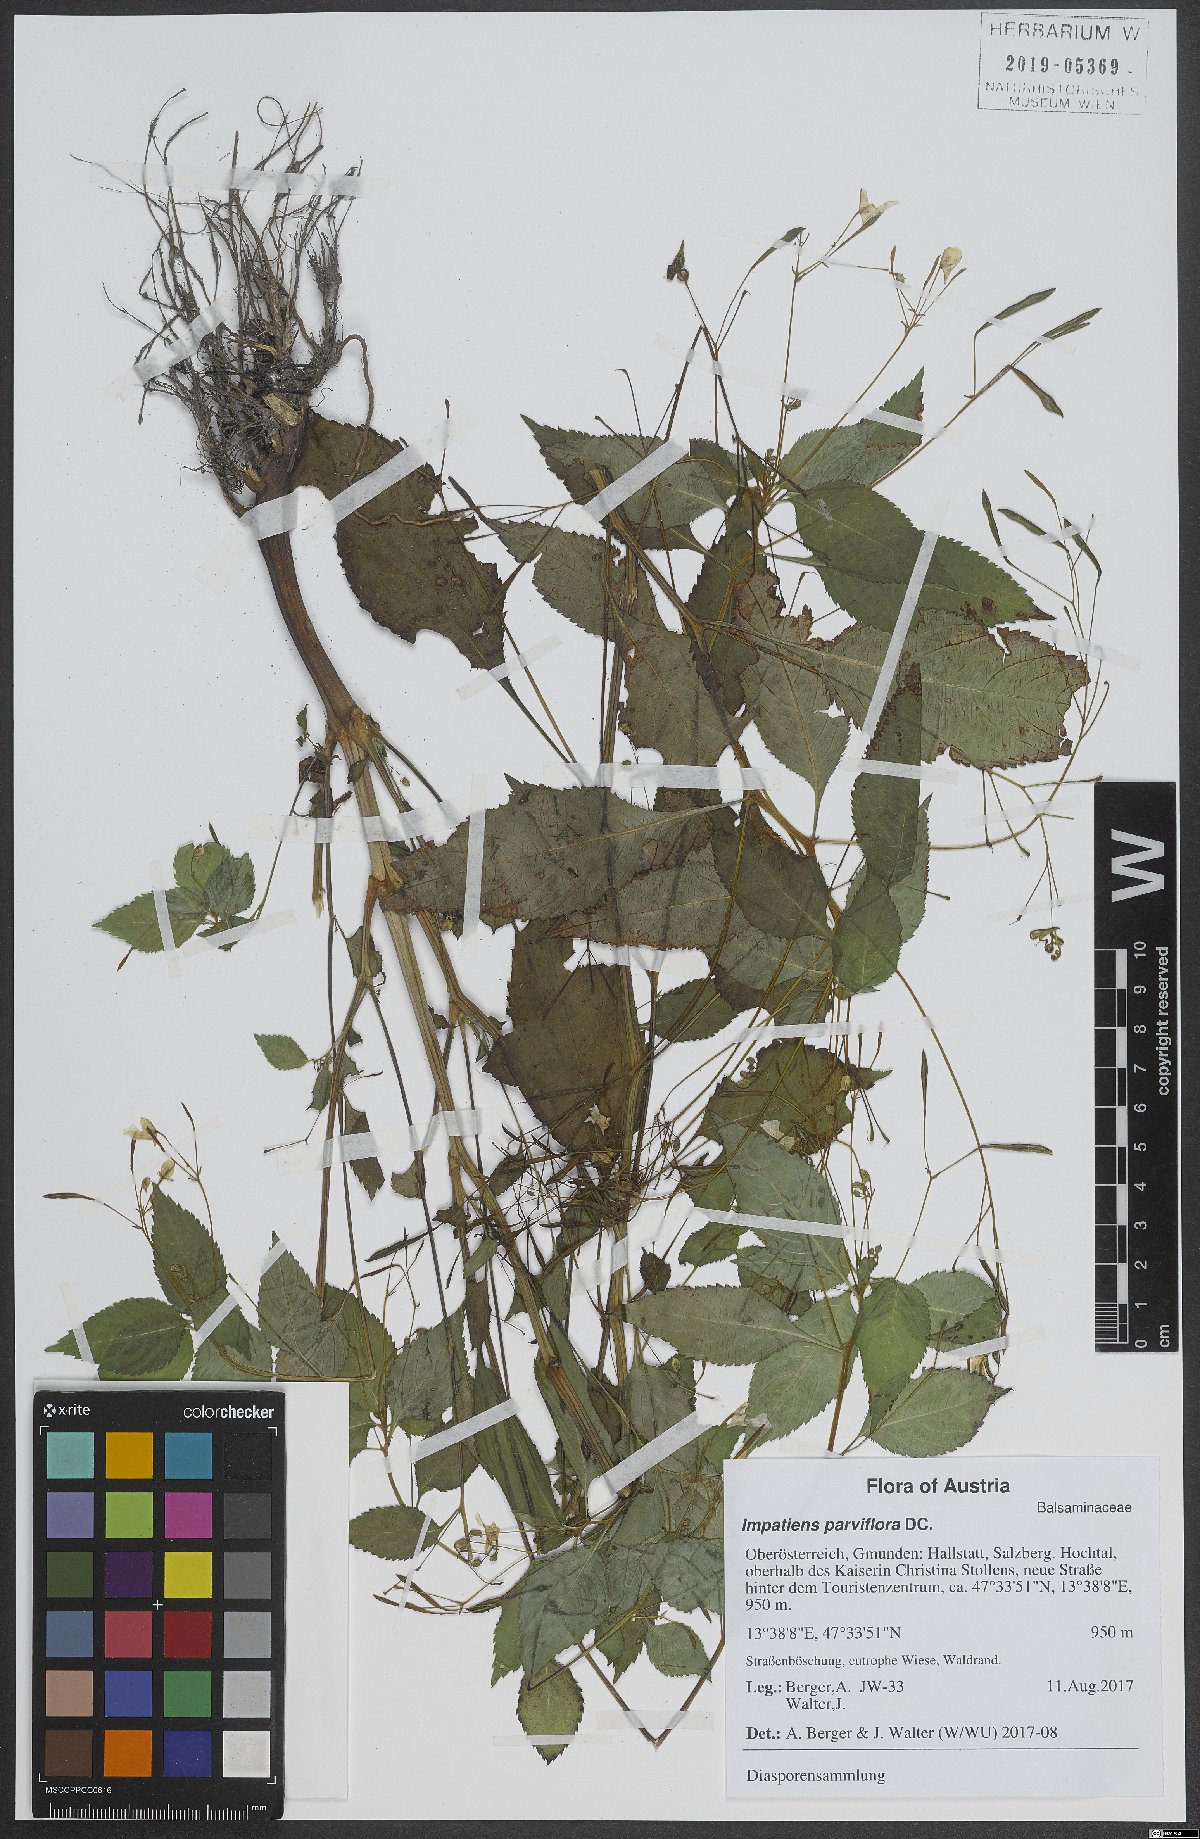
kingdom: Plantae
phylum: Tracheophyta
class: Magnoliopsida
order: Ericales
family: Balsaminaceae
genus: Impatiens
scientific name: Impatiens parviflora
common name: Small balsam
